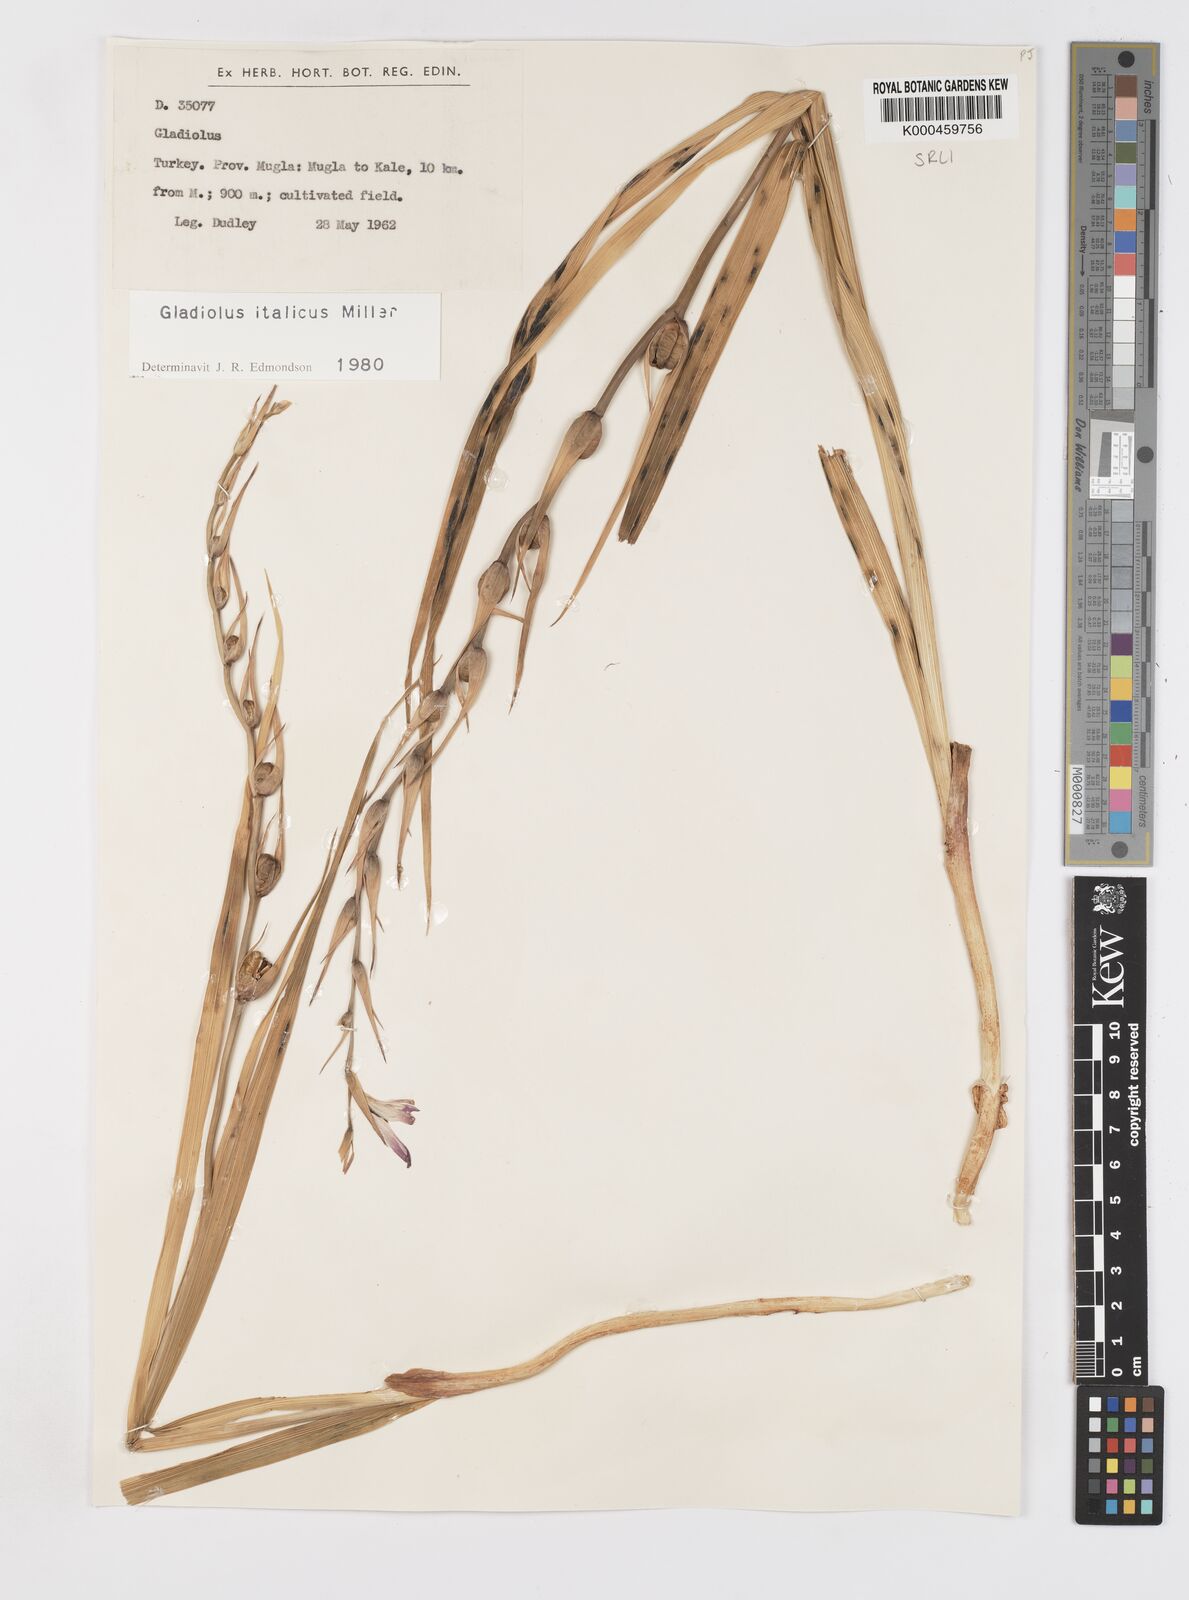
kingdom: Plantae
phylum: Tracheophyta
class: Liliopsida
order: Asparagales
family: Iridaceae
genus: Gladiolus
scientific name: Gladiolus italicus
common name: Field gladiolus
